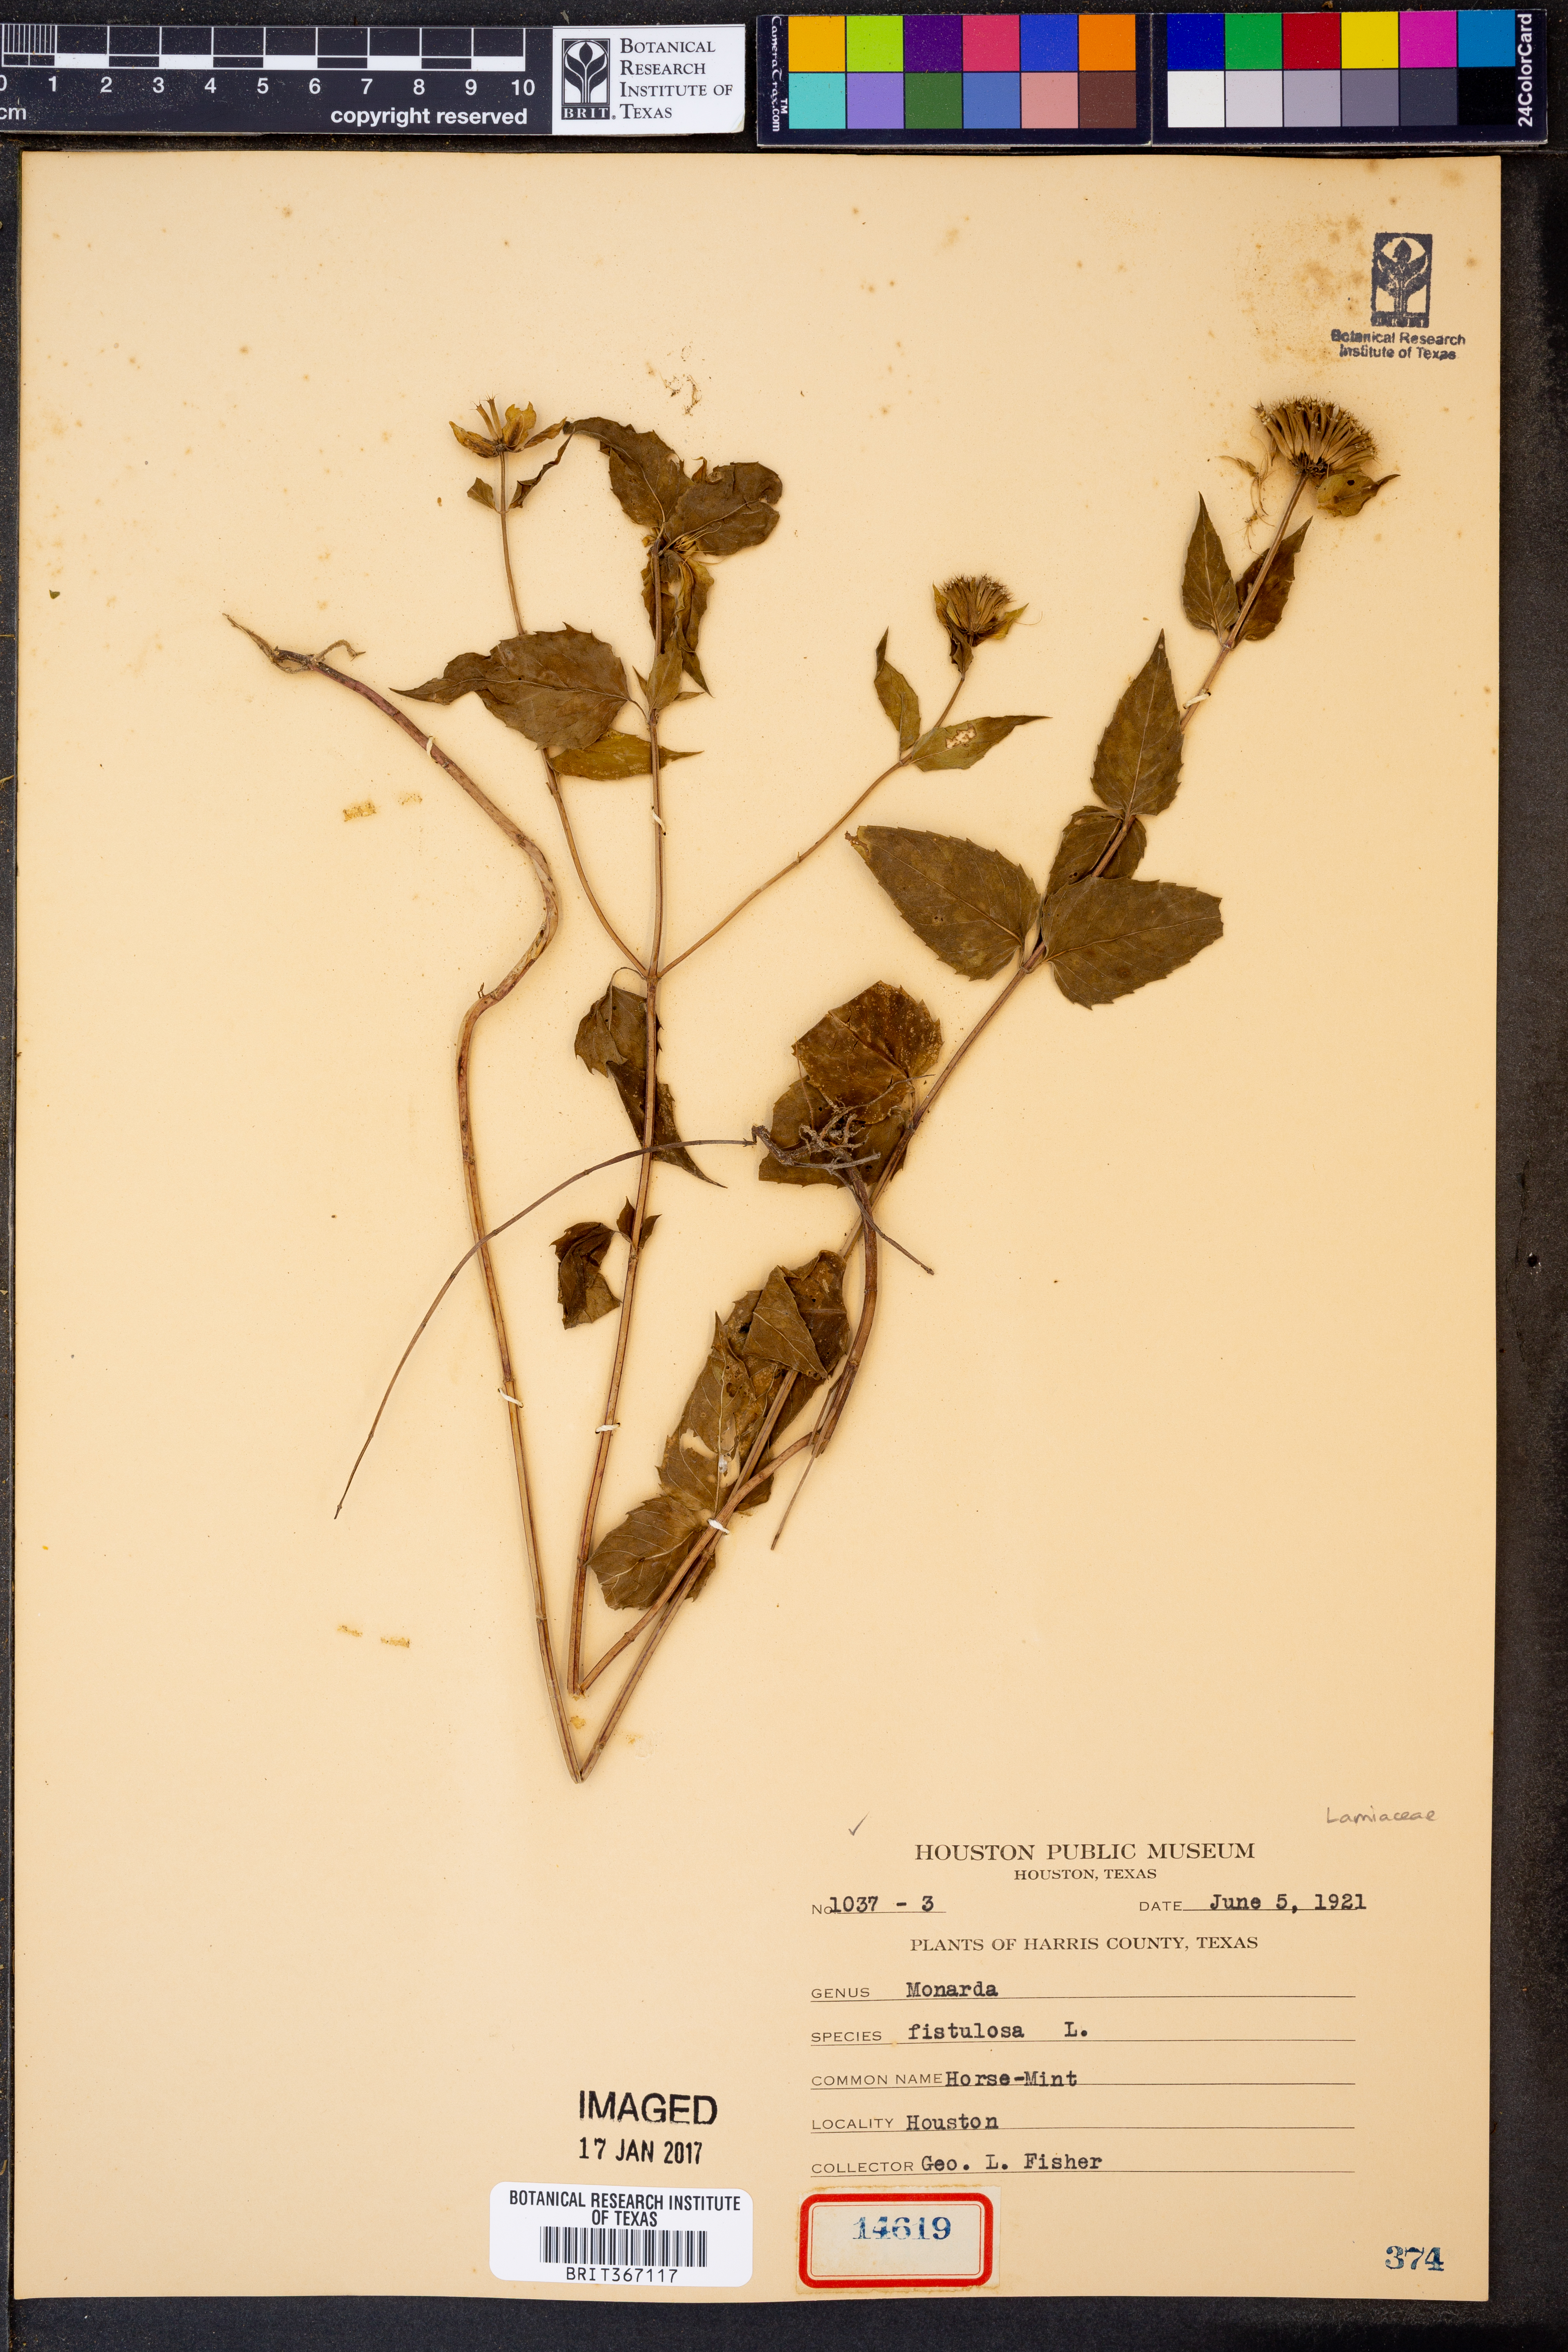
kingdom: Plantae
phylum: Tracheophyta
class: Magnoliopsida
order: Lamiales
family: Lamiaceae
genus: Monarda
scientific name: Monarda fistulosa
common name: Purple beebalm
